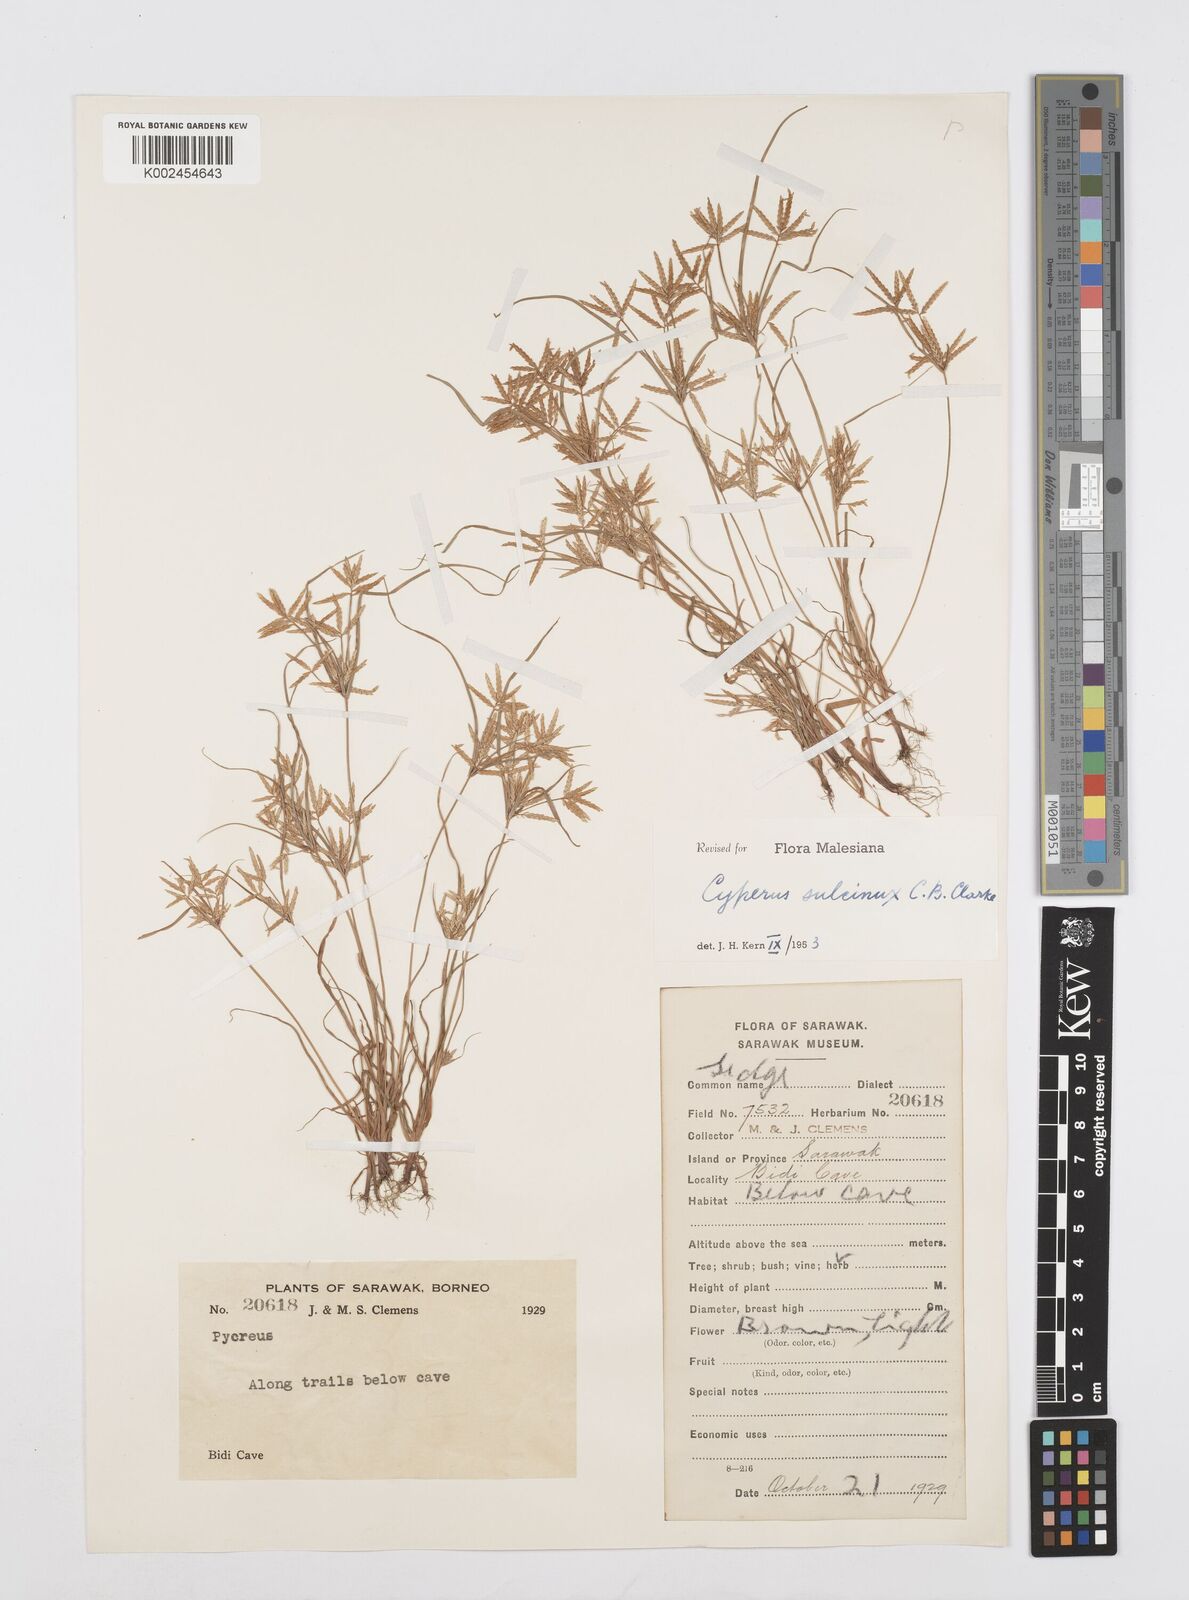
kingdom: Plantae
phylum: Tracheophyta
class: Liliopsida
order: Poales
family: Cyperaceae
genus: Cyperus
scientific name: Cyperus sulcinux
